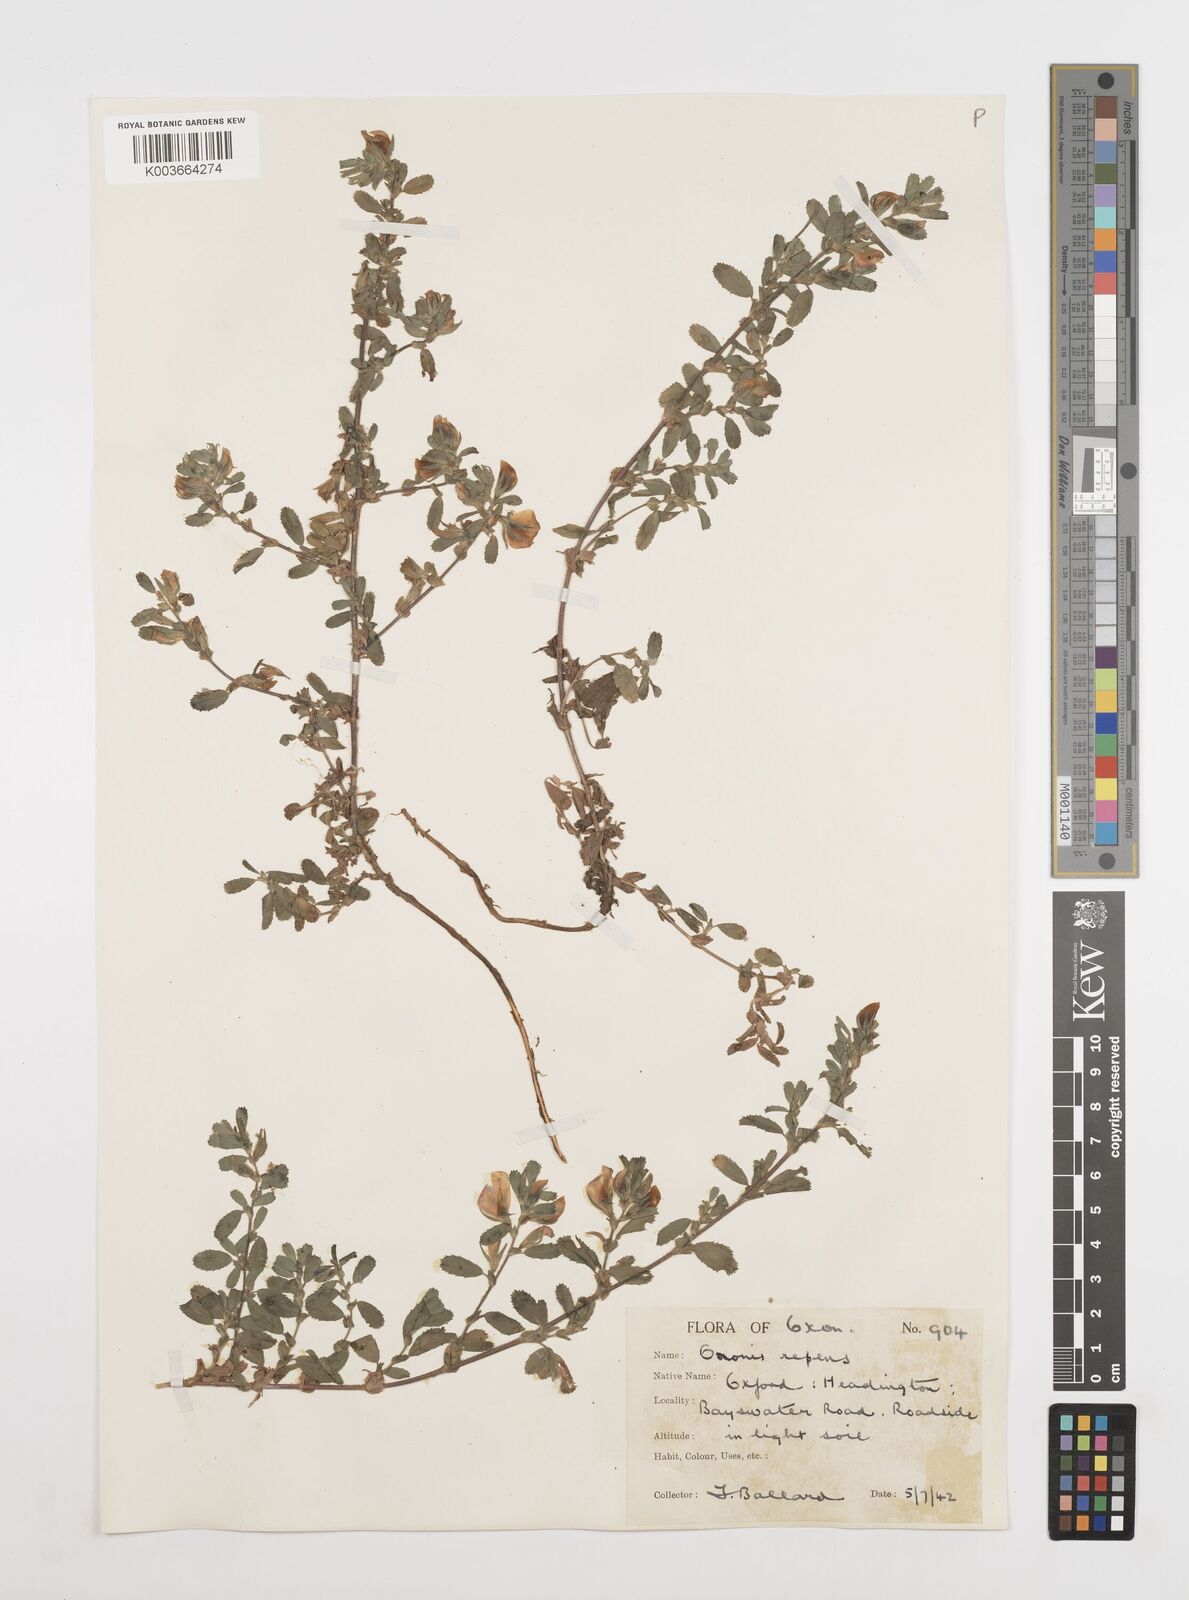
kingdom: Plantae
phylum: Tracheophyta
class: Magnoliopsida
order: Fabales
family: Fabaceae
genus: Ononis
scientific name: Ononis spinosa
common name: Spiny restharrow
